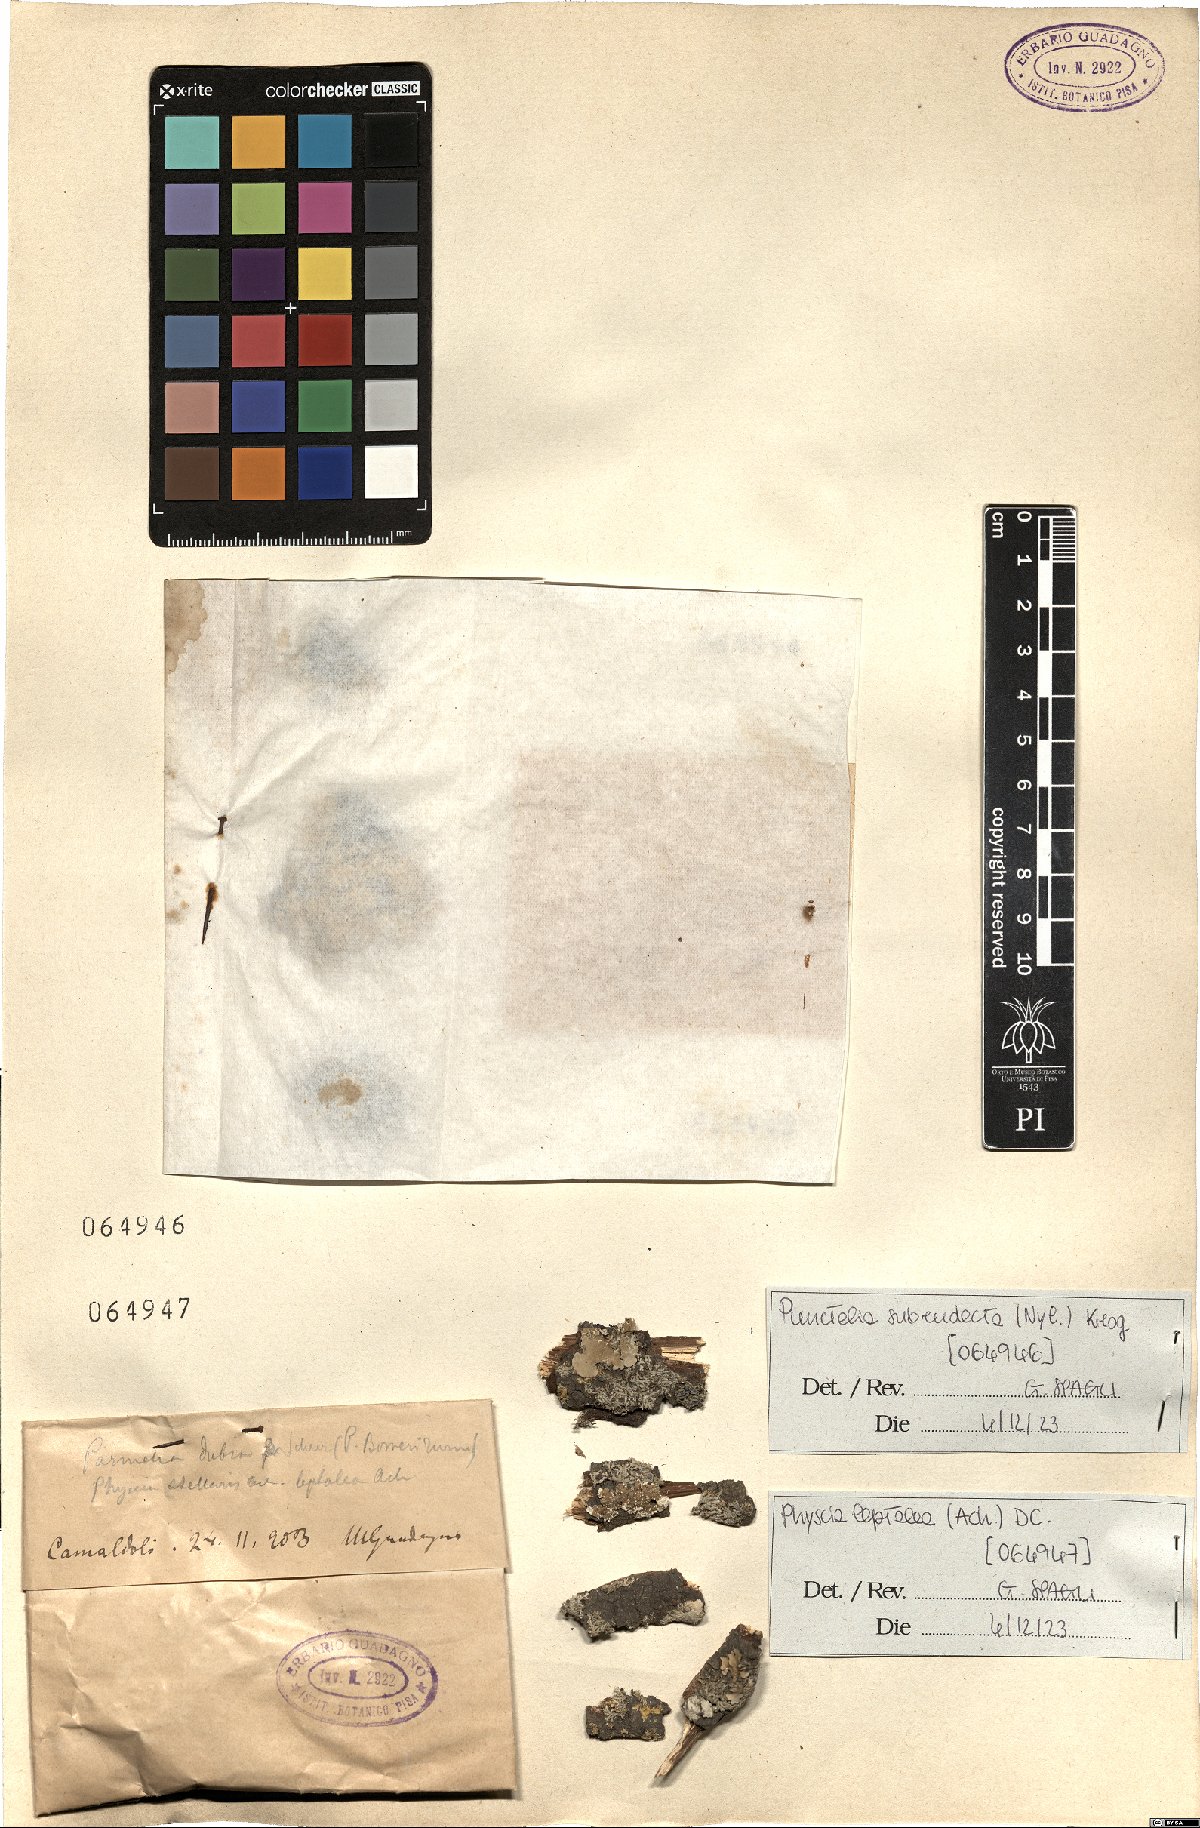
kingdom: Fungi
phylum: Ascomycota
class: Lecanoromycetes
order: Lecanorales
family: Parmeliaceae
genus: Punctelia
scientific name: Punctelia subrudecta
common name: Powdered speckled shield lichen
